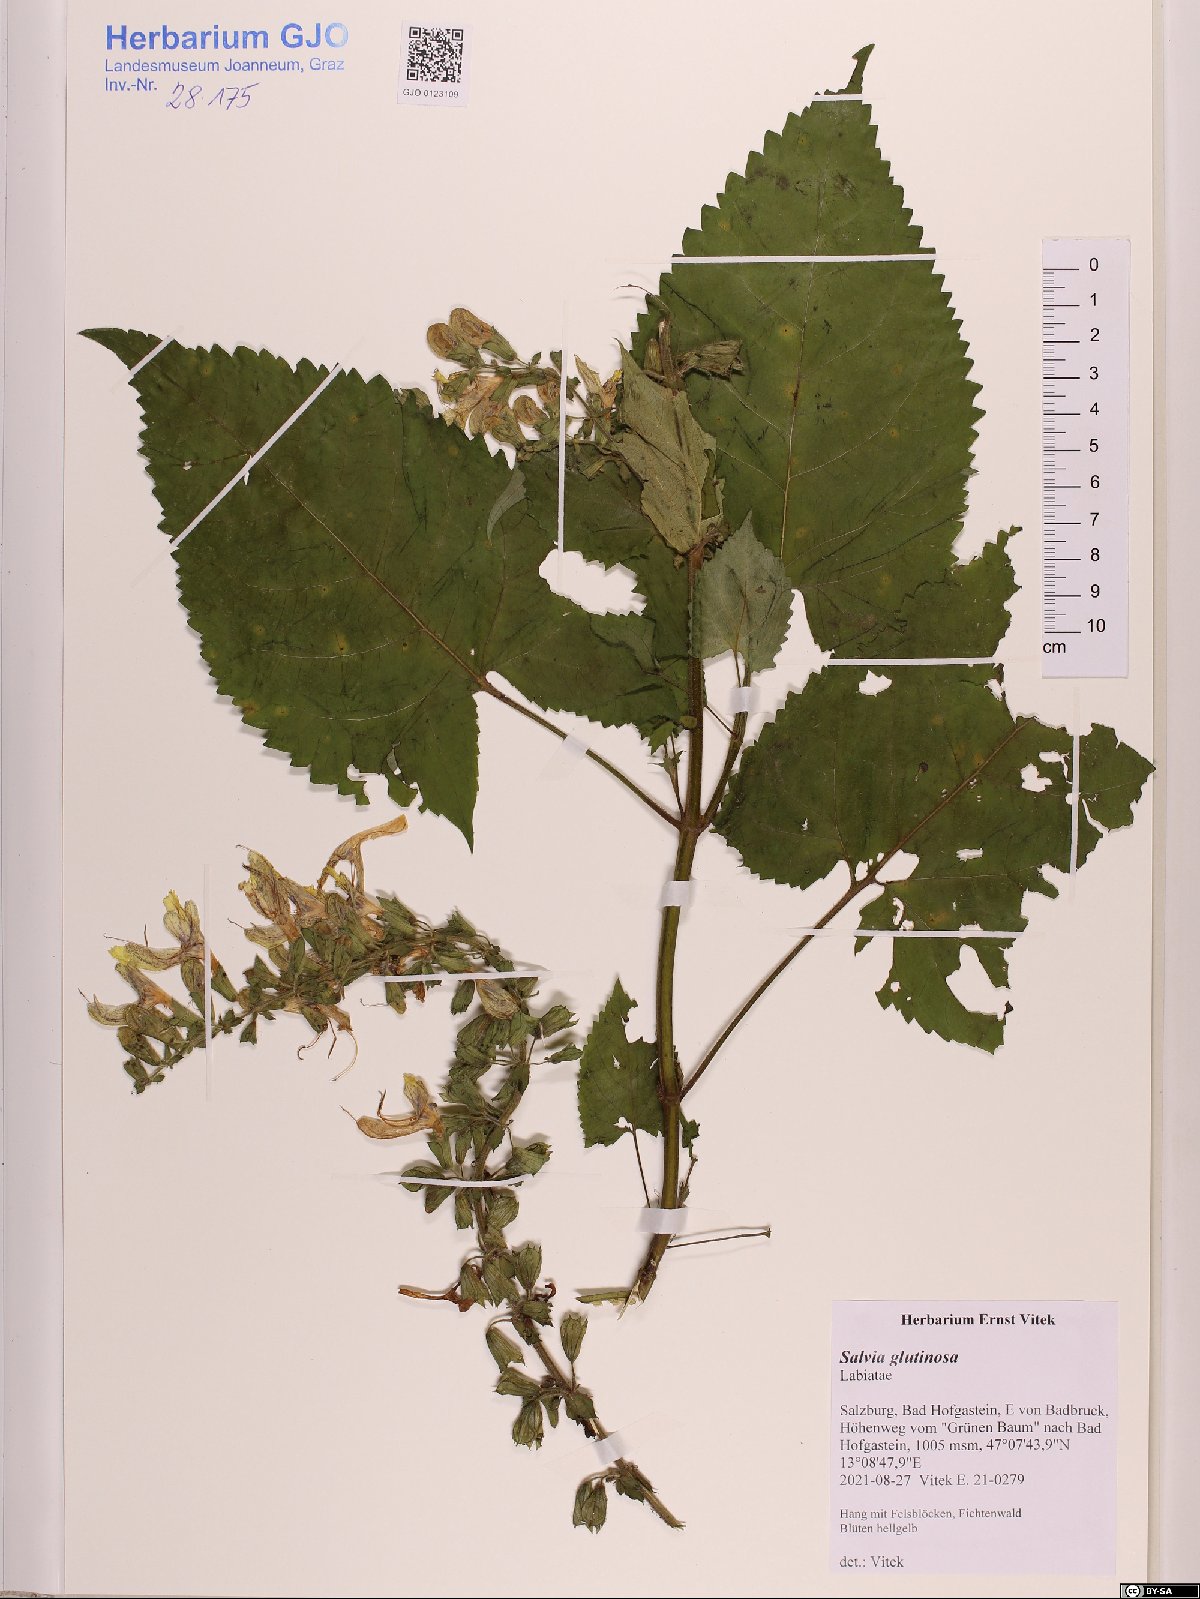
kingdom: Plantae
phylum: Tracheophyta
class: Magnoliopsida
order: Lamiales
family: Lamiaceae
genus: Salvia
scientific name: Salvia glutinosa
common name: Sticky clary
